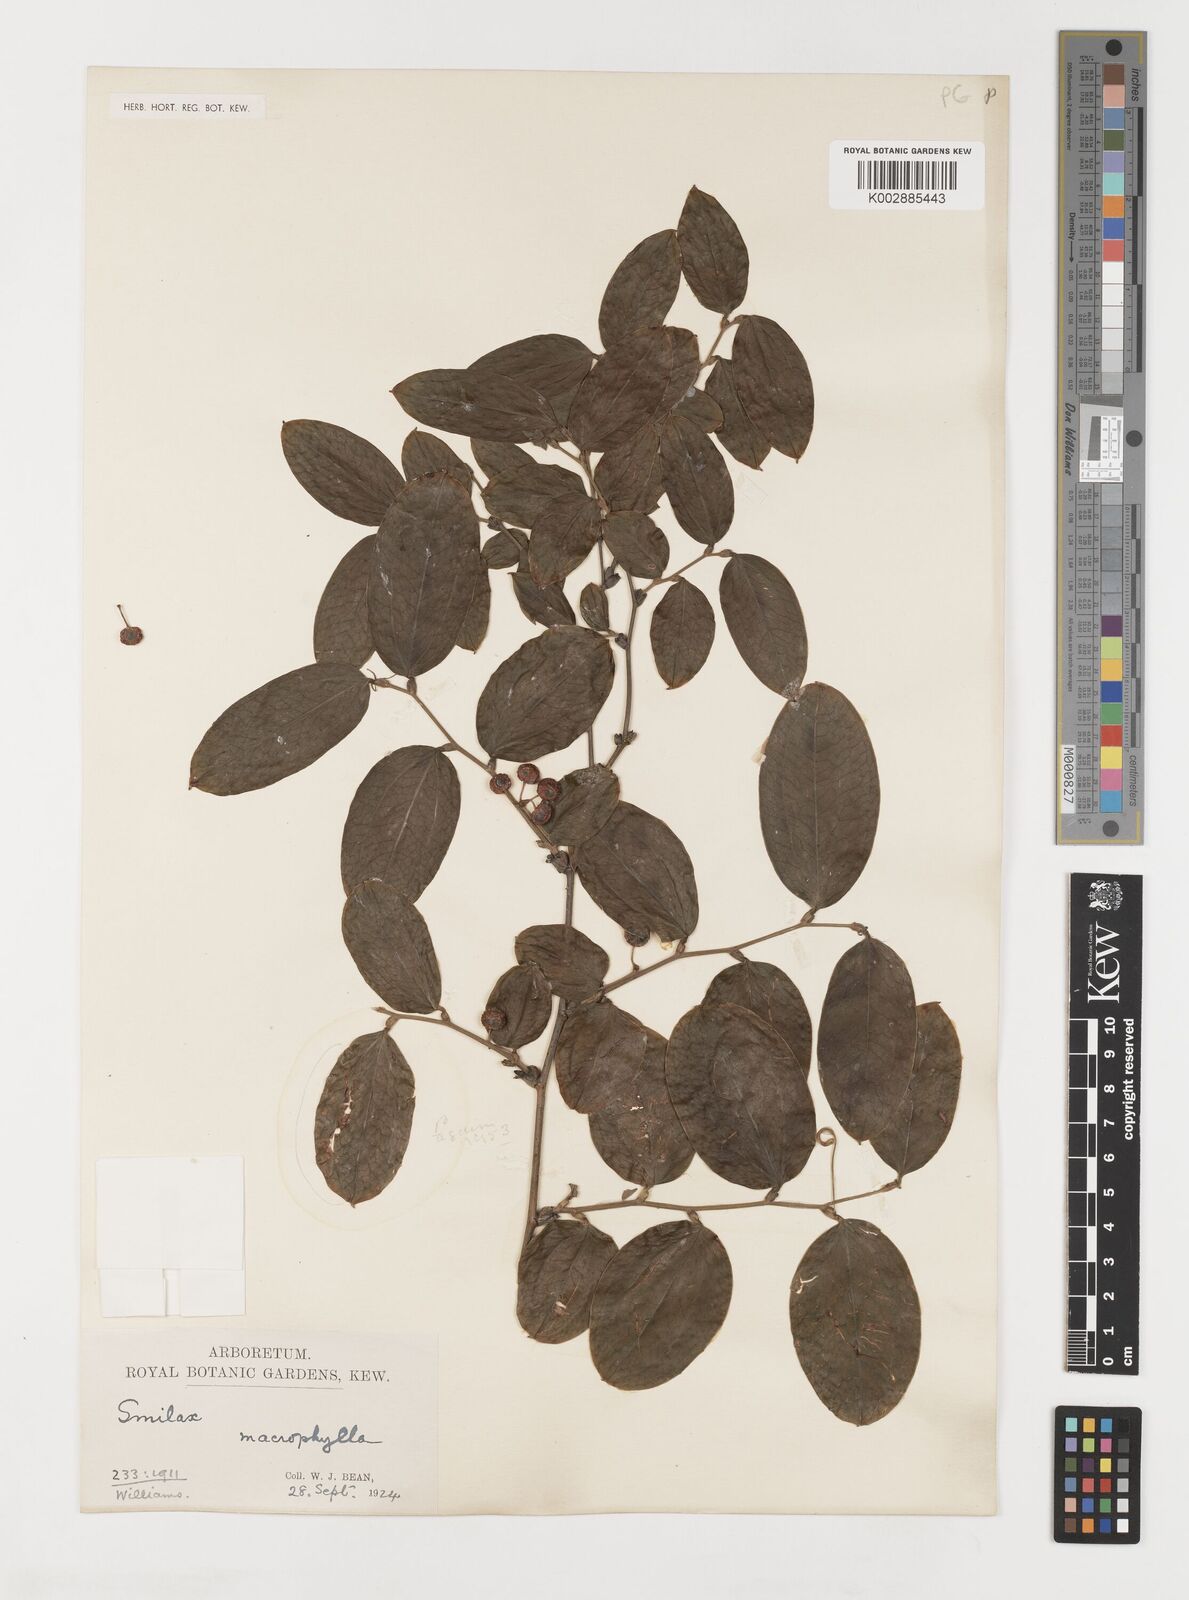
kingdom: Plantae
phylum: Tracheophyta
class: Liliopsida
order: Liliales
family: Smilacaceae
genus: Smilax
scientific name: Smilax
